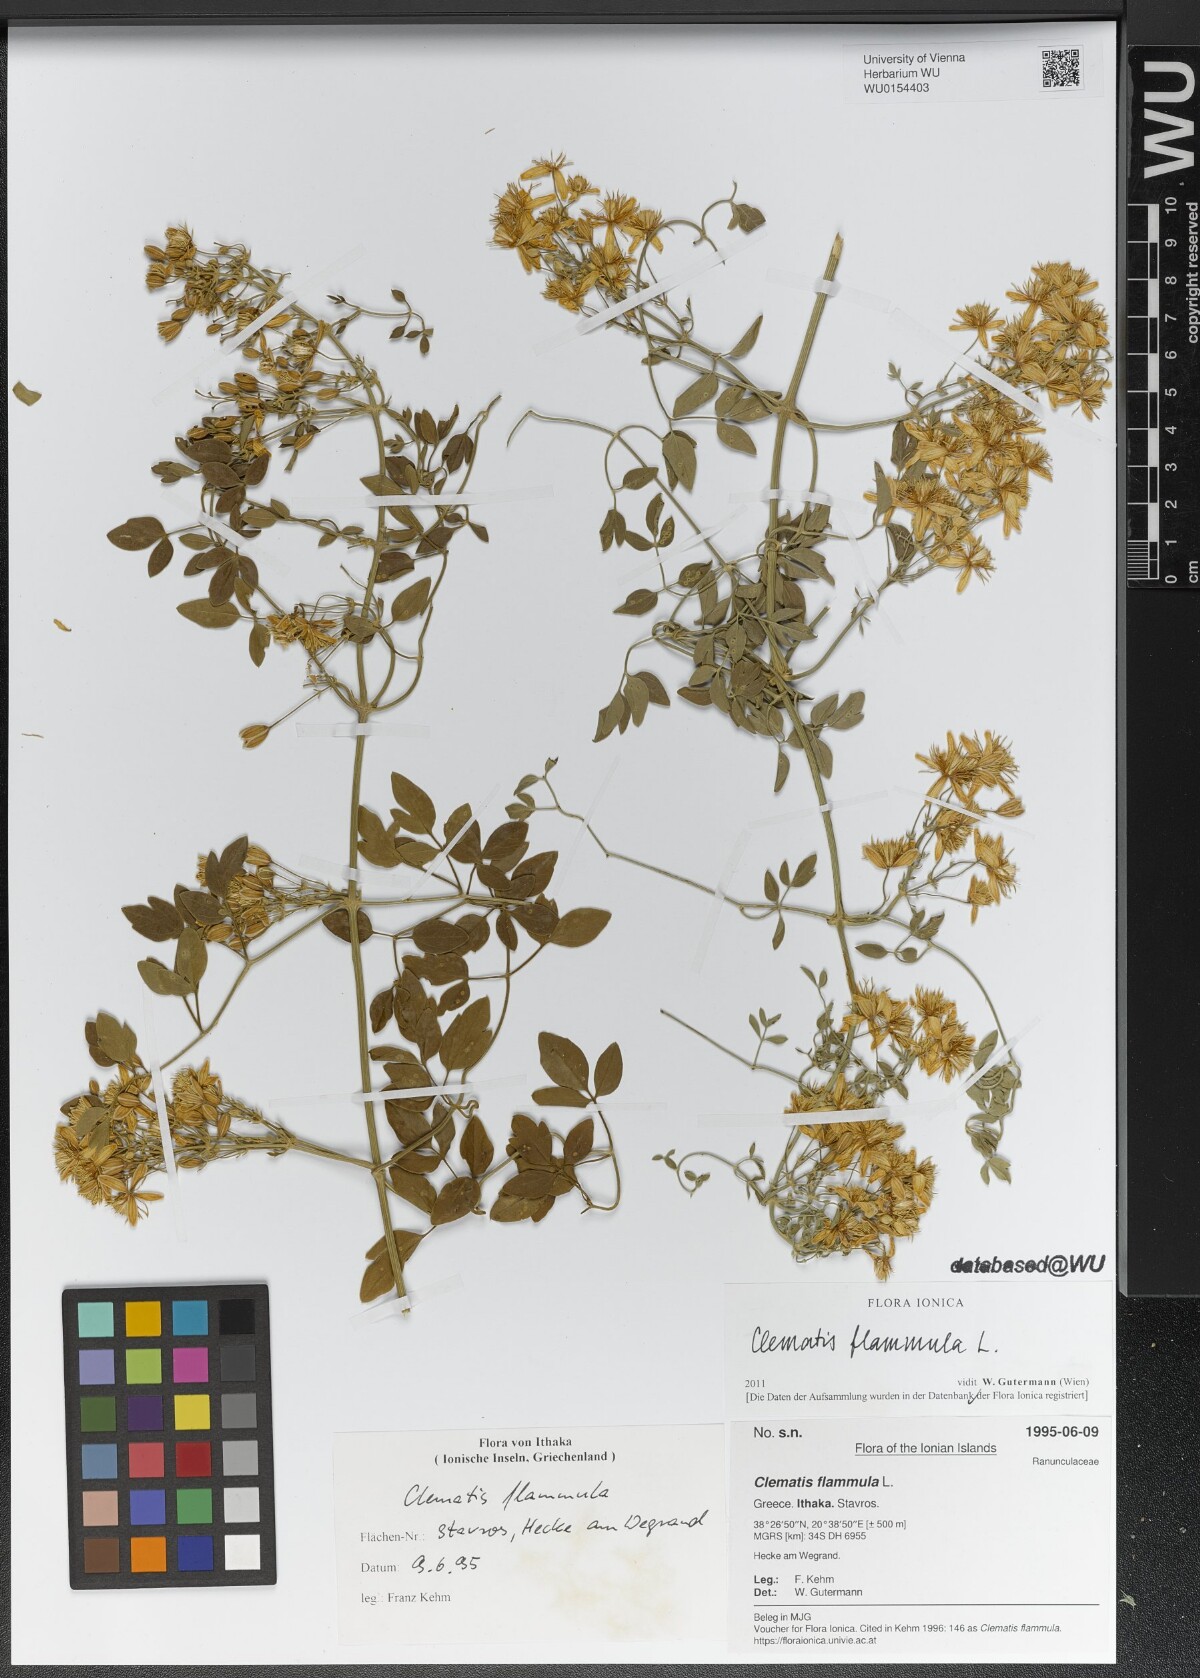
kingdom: Plantae
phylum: Tracheophyta
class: Magnoliopsida
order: Ranunculales
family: Ranunculaceae
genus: Clematis
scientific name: Clematis flammula
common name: Virgin's-bower
